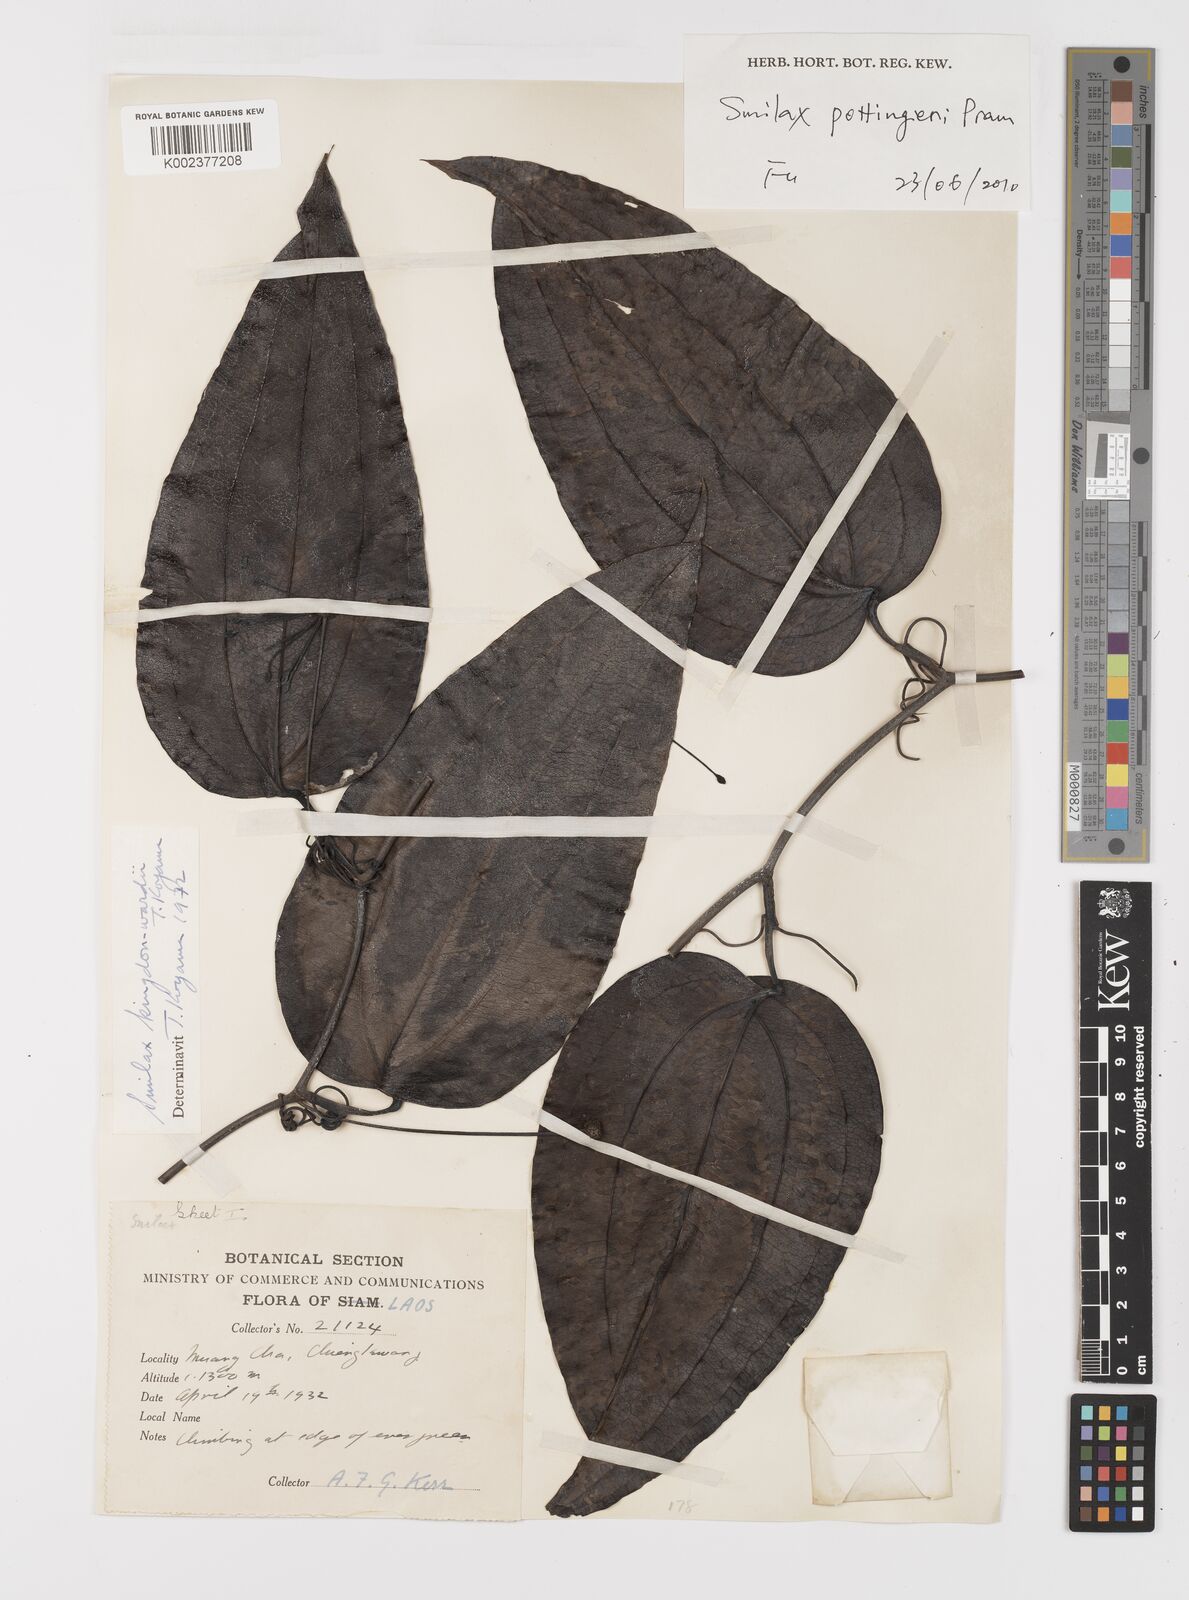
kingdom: Plantae
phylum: Tracheophyta
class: Liliopsida
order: Liliales
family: Smilacaceae
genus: Smilax
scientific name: Smilax
